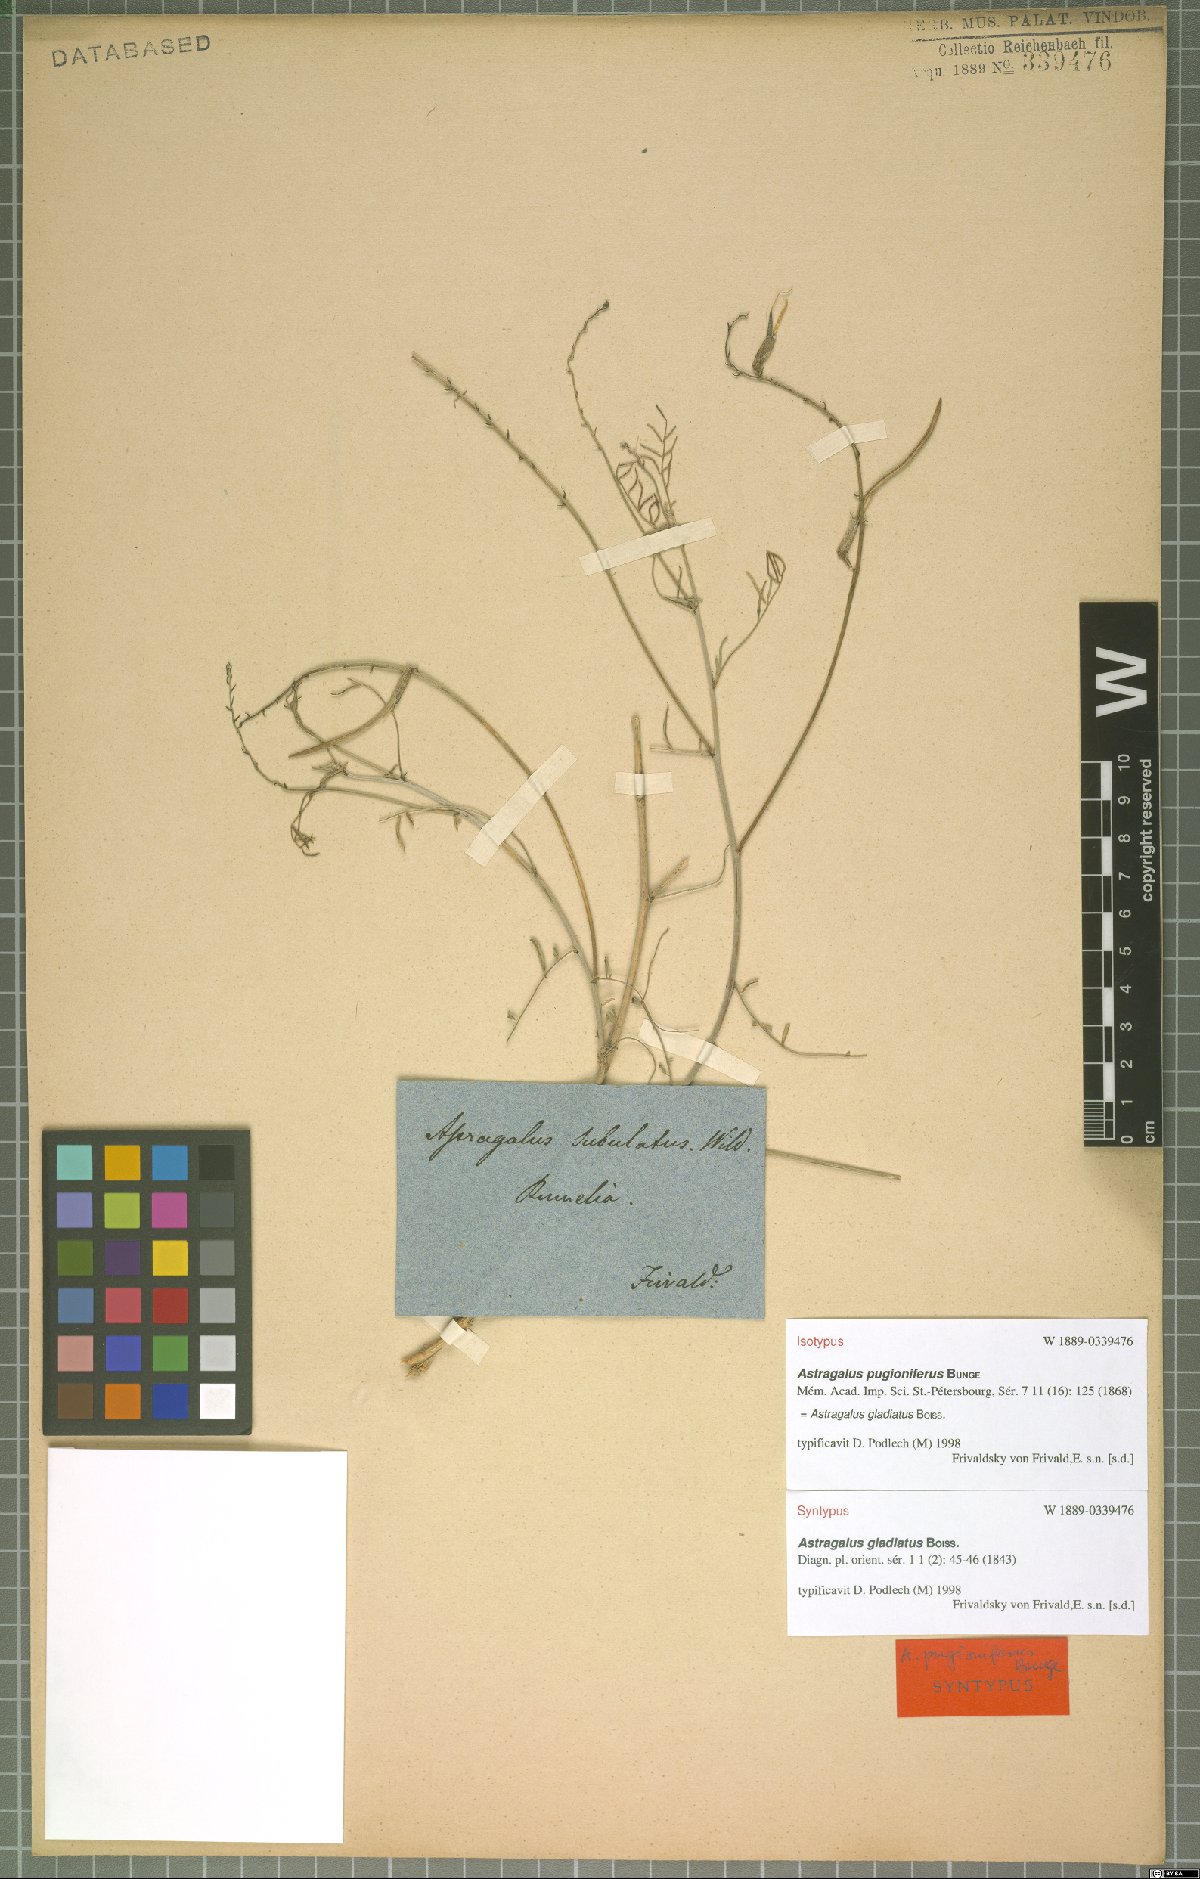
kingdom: Plantae
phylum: Tracheophyta
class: Magnoliopsida
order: Fabales
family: Fabaceae
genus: Astragalus
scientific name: Astragalus gladiatus
